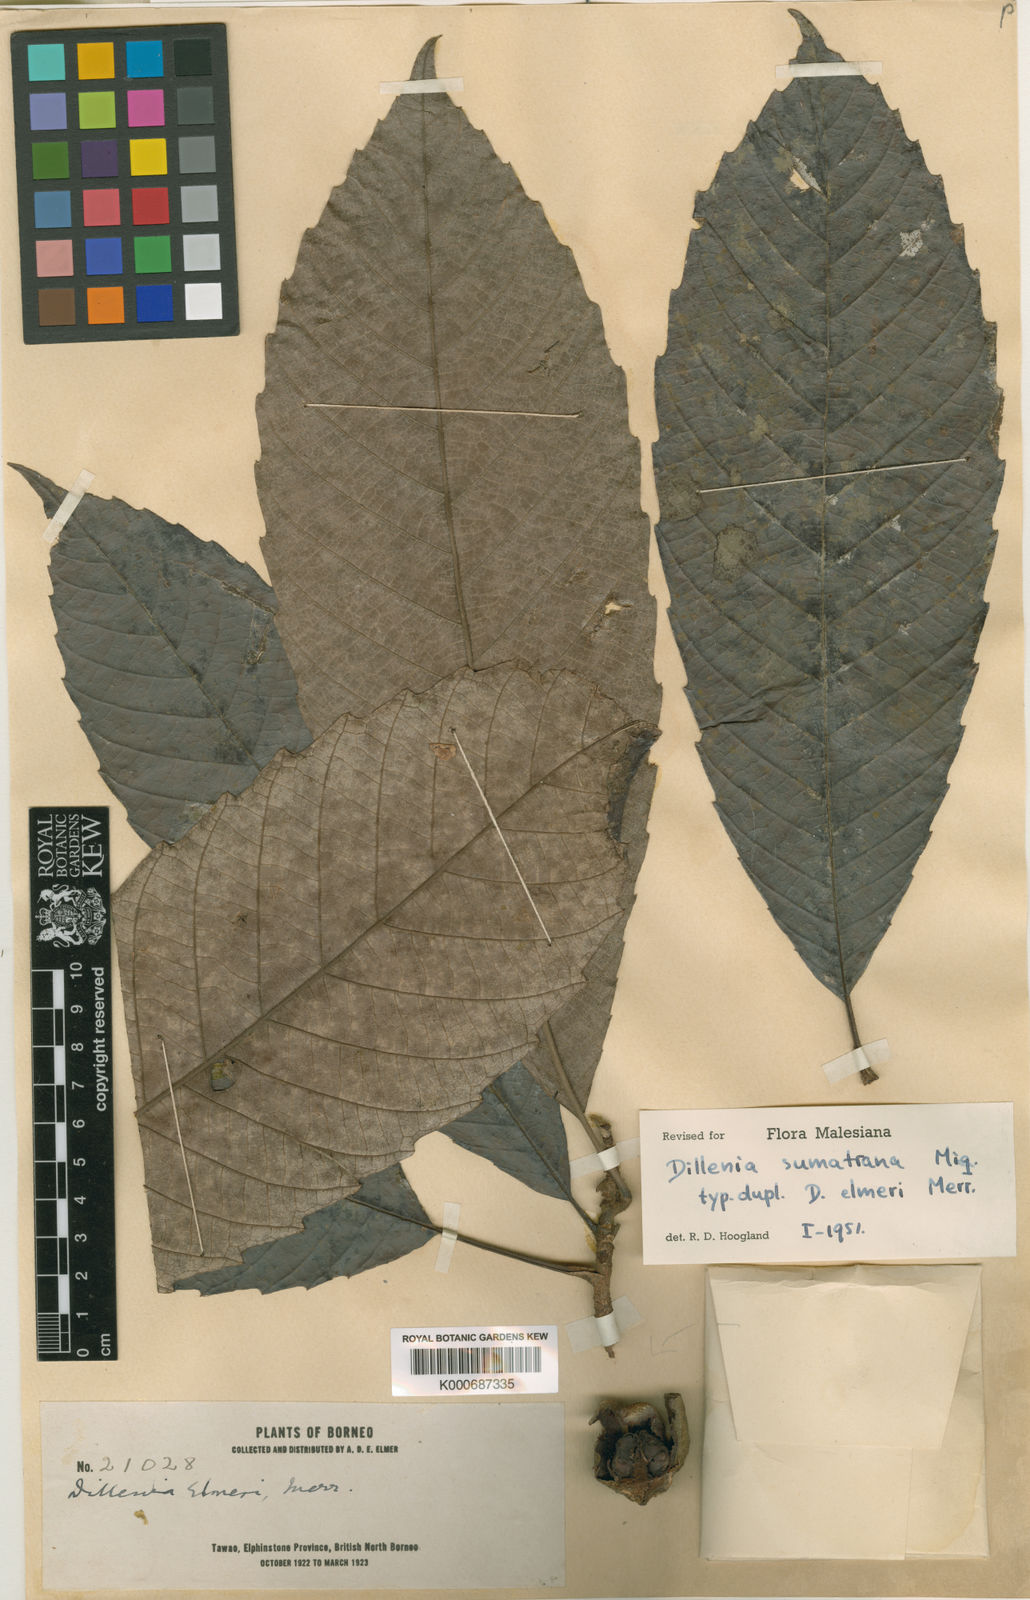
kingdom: Plantae
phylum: Tracheophyta
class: Magnoliopsida
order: Dilleniales
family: Dilleniaceae
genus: Dillenia
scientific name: Dillenia sumatrana
